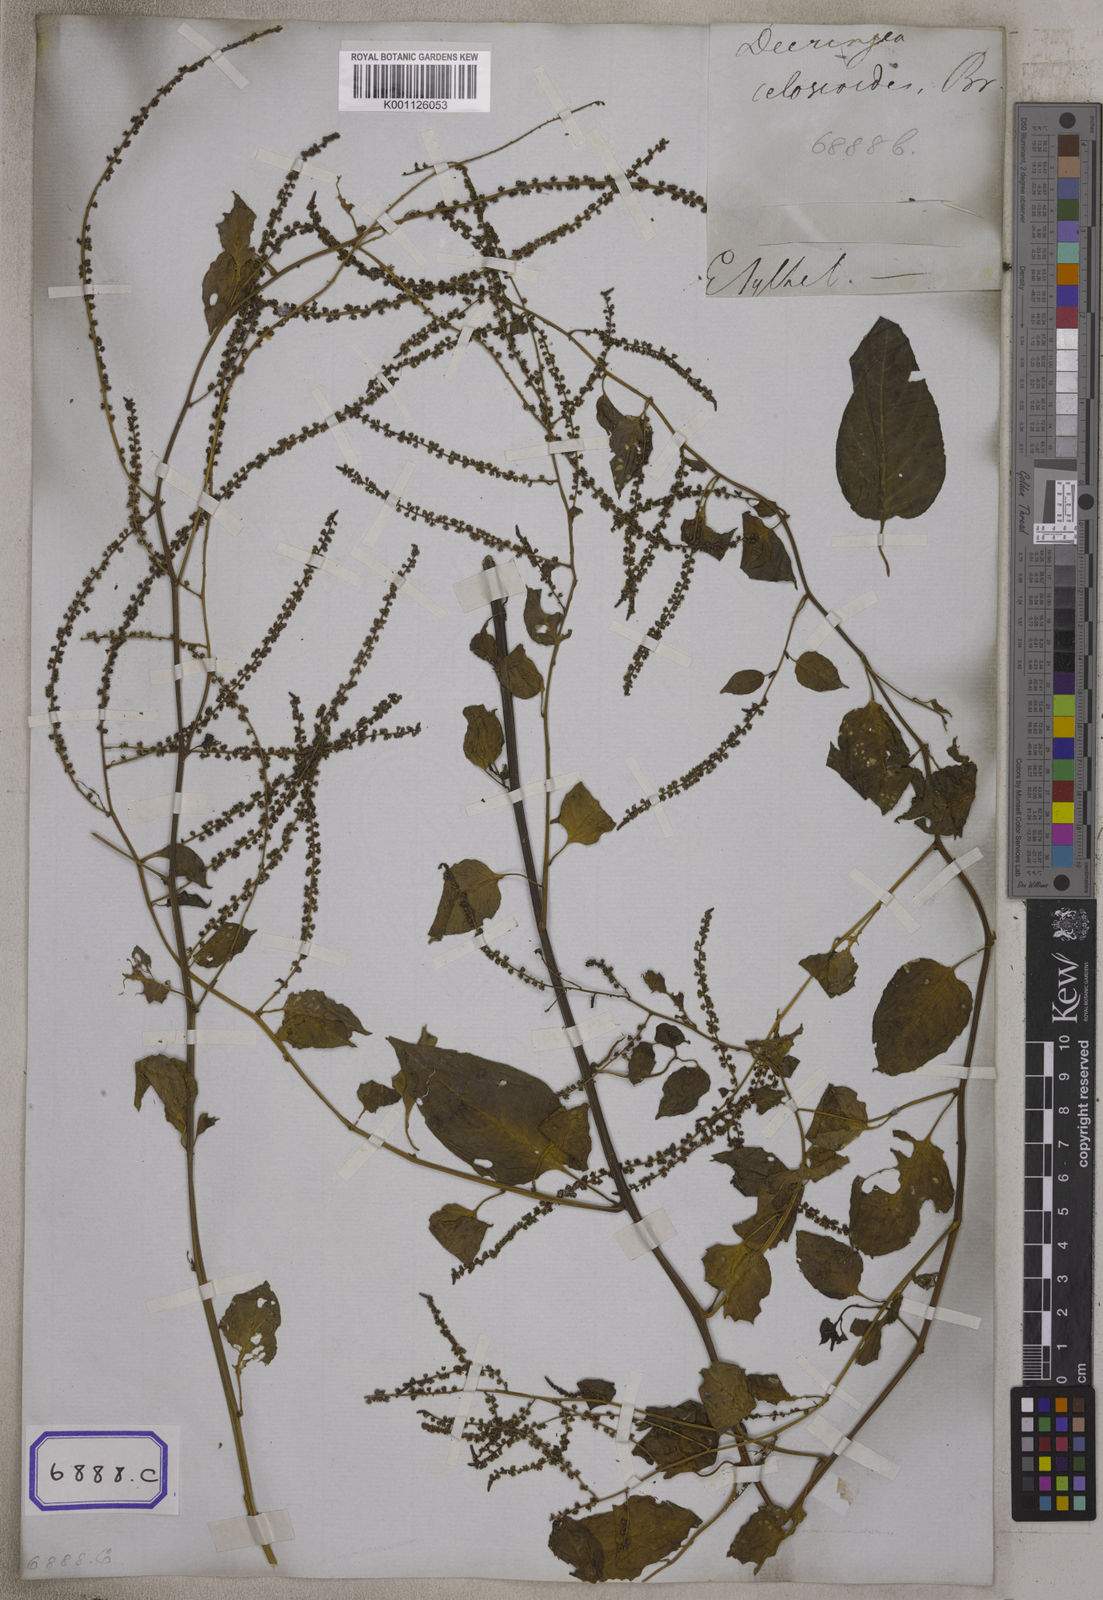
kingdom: Plantae
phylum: Tracheophyta
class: Magnoliopsida
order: Caryophyllales
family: Amaranthaceae
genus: Deeringia
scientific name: Deeringia amaranthoides
